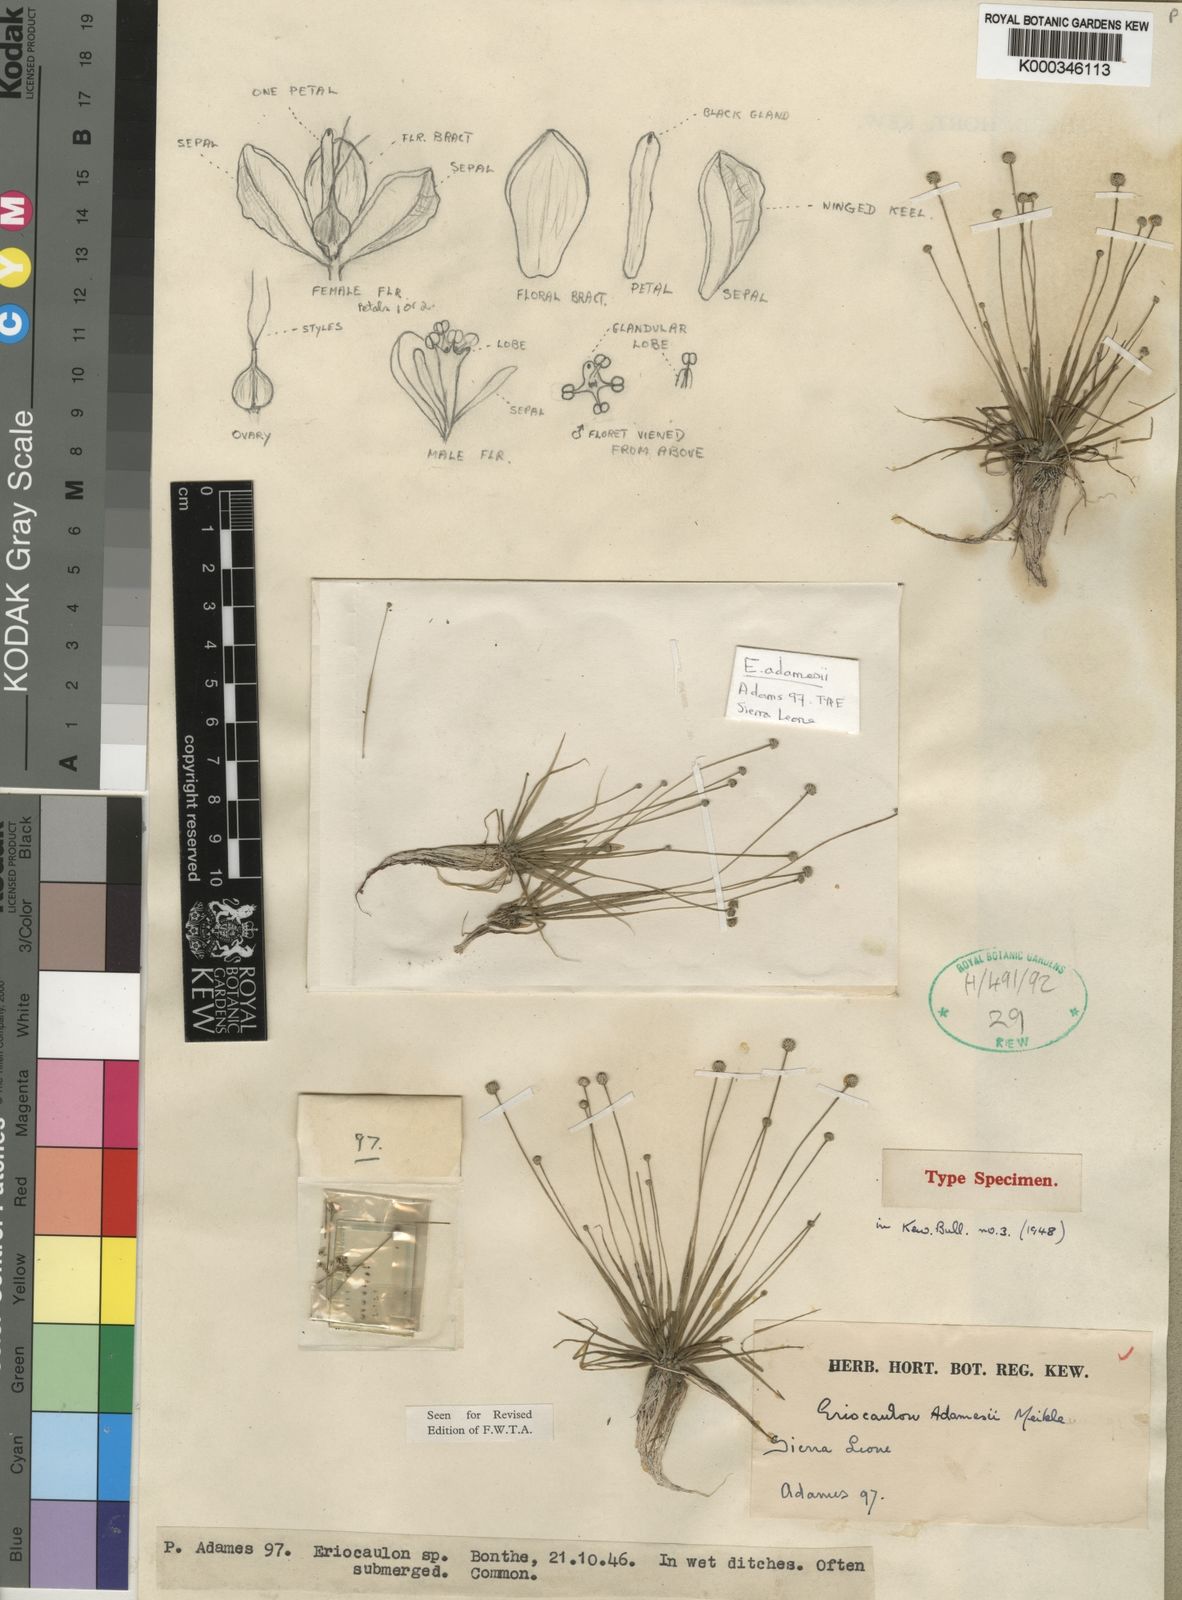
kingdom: Plantae
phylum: Tracheophyta
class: Liliopsida
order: Poales
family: Eriocaulaceae
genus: Eriocaulon
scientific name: Eriocaulon adamesii
